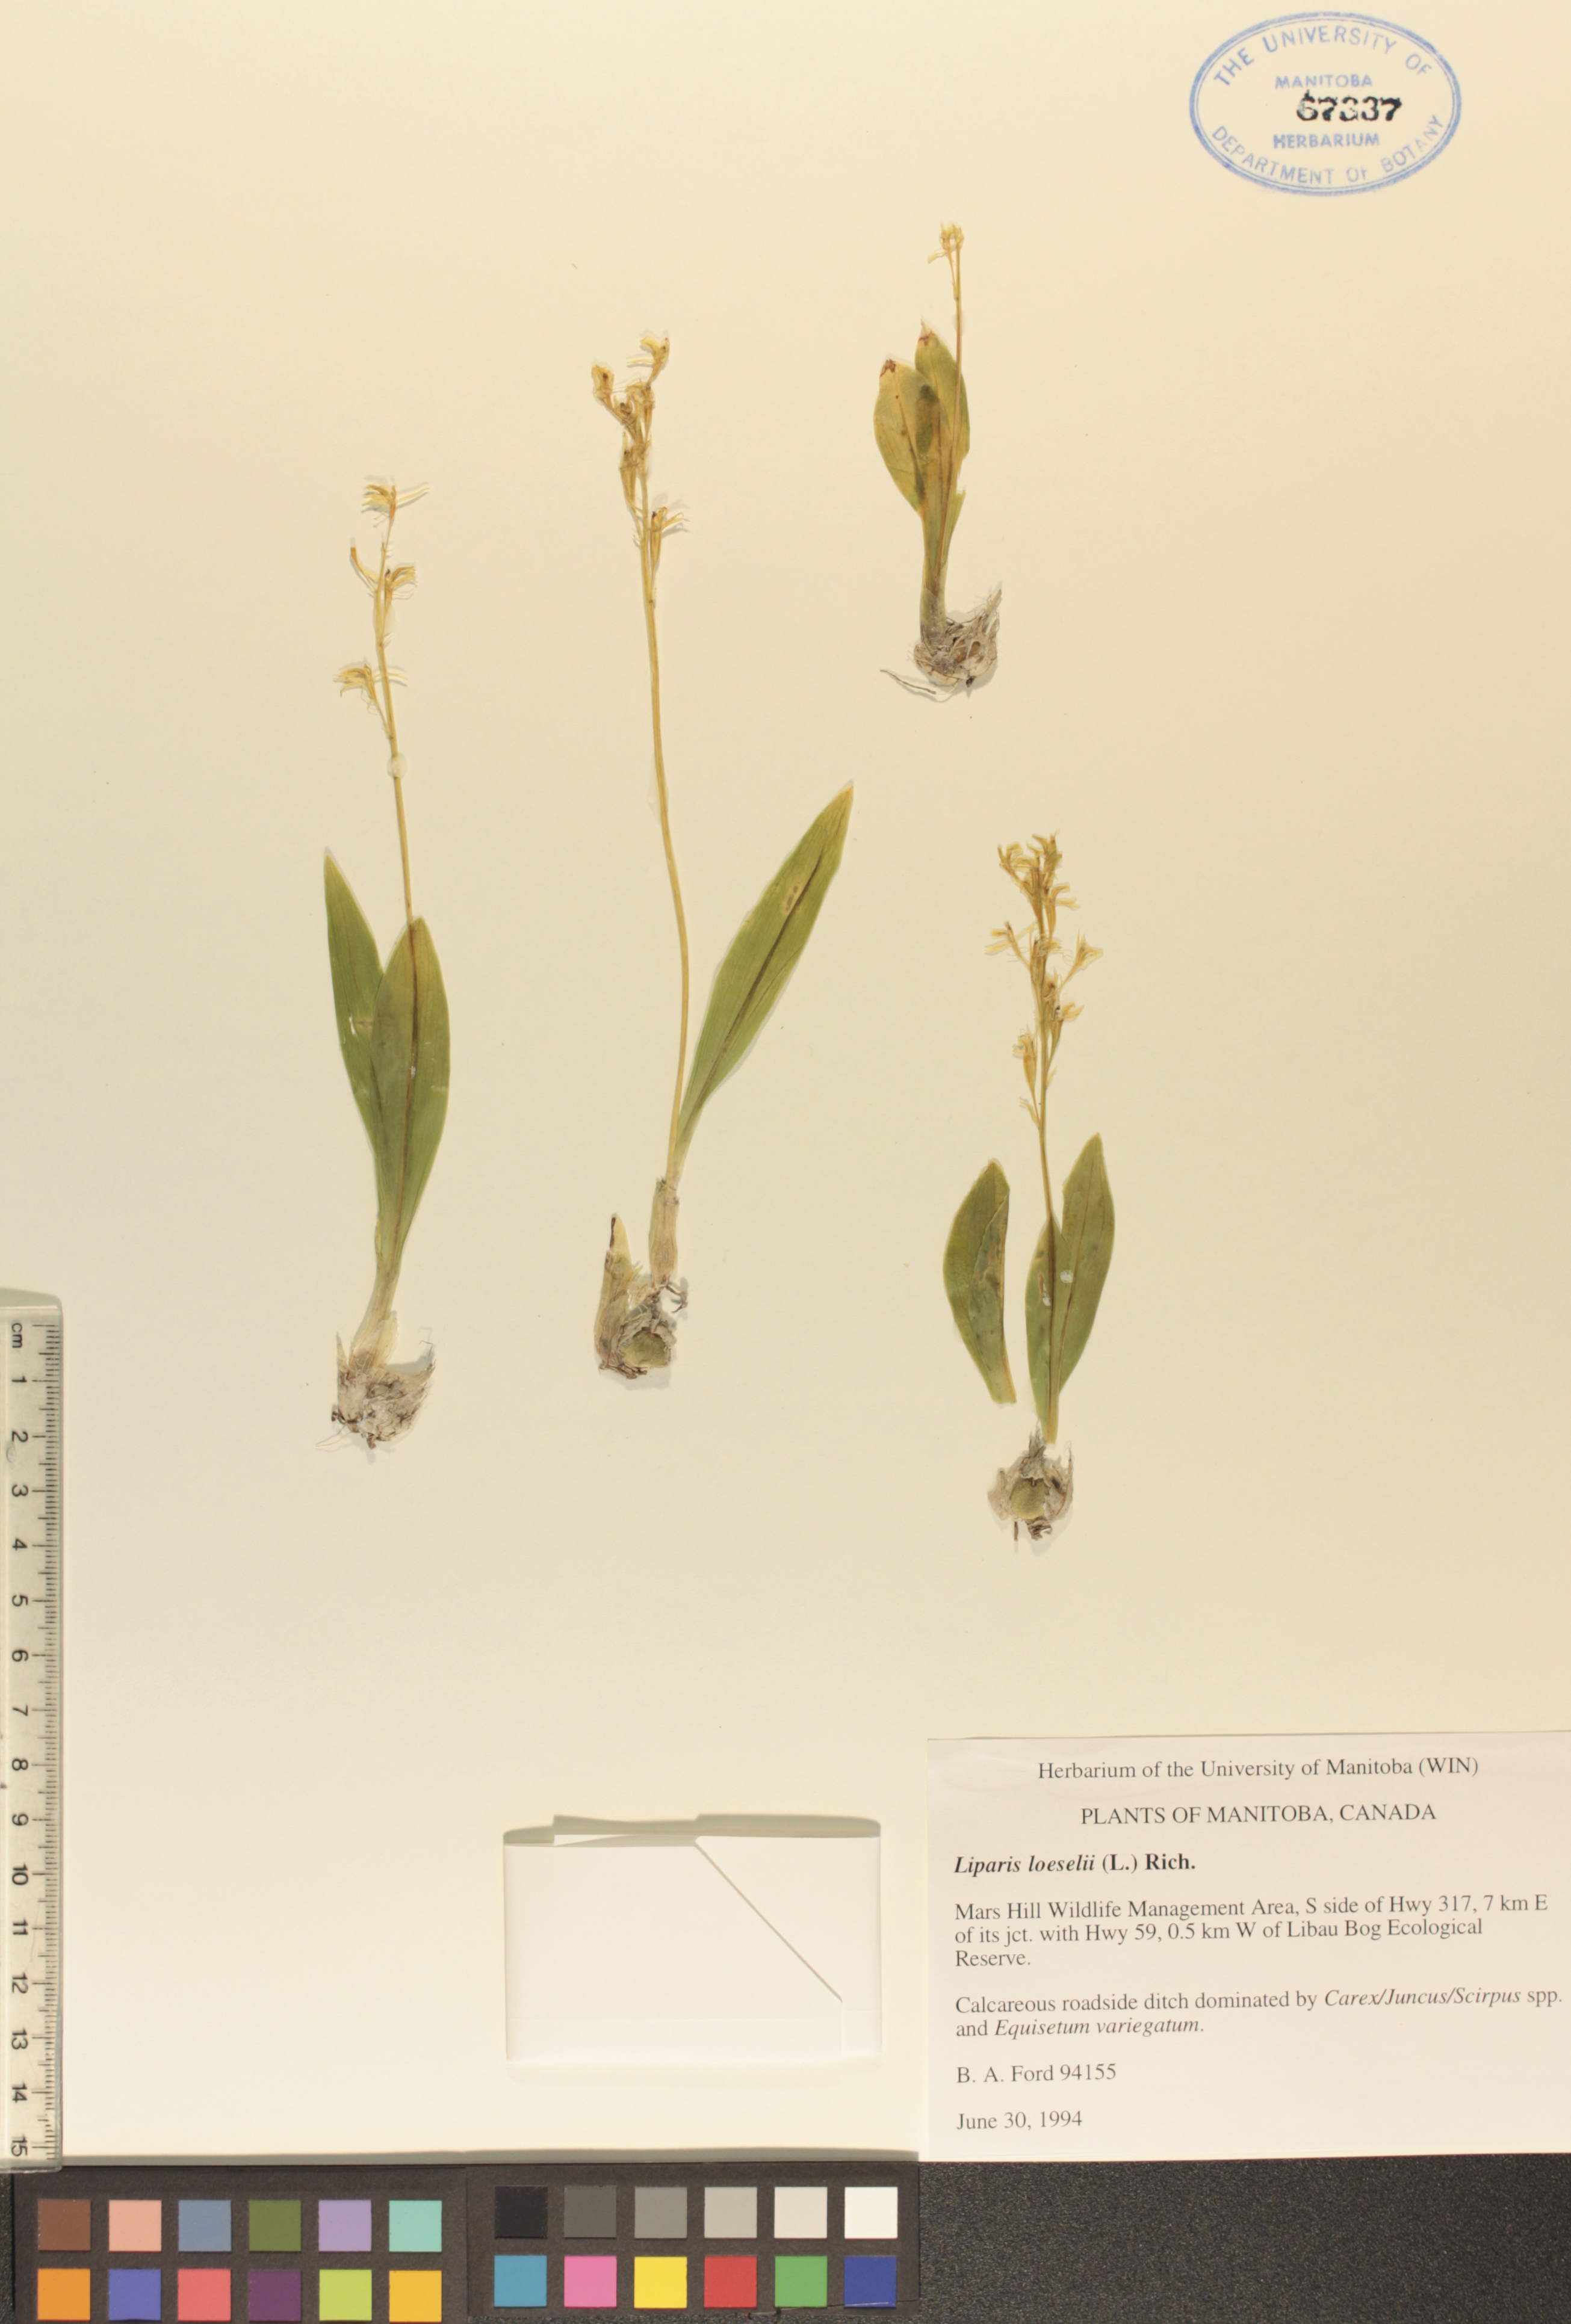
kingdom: Animalia
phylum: Arthropoda
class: Insecta
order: Coleoptera
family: Curculionidae
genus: Liparis
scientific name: Liparis loeselii
